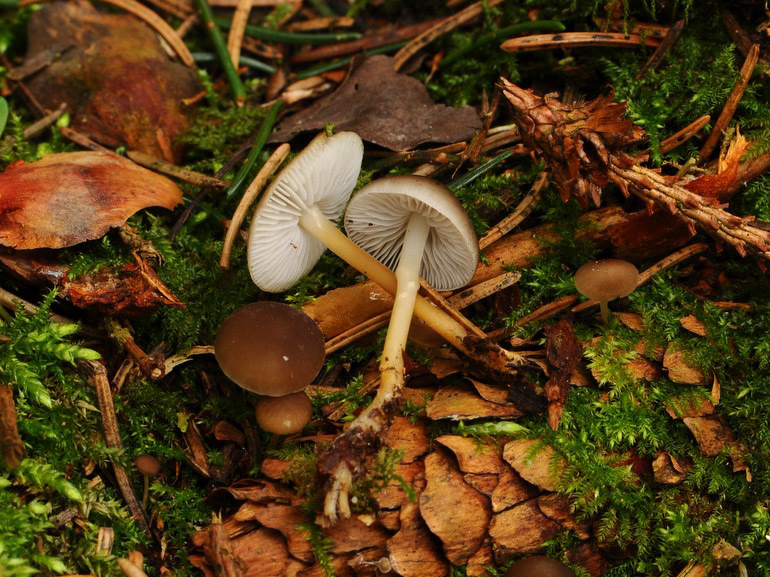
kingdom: Fungi
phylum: Basidiomycota
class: Agaricomycetes
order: Agaricales
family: Physalacriaceae
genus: Strobilurus
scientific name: Strobilurus esculentus
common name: gran-koglehat
